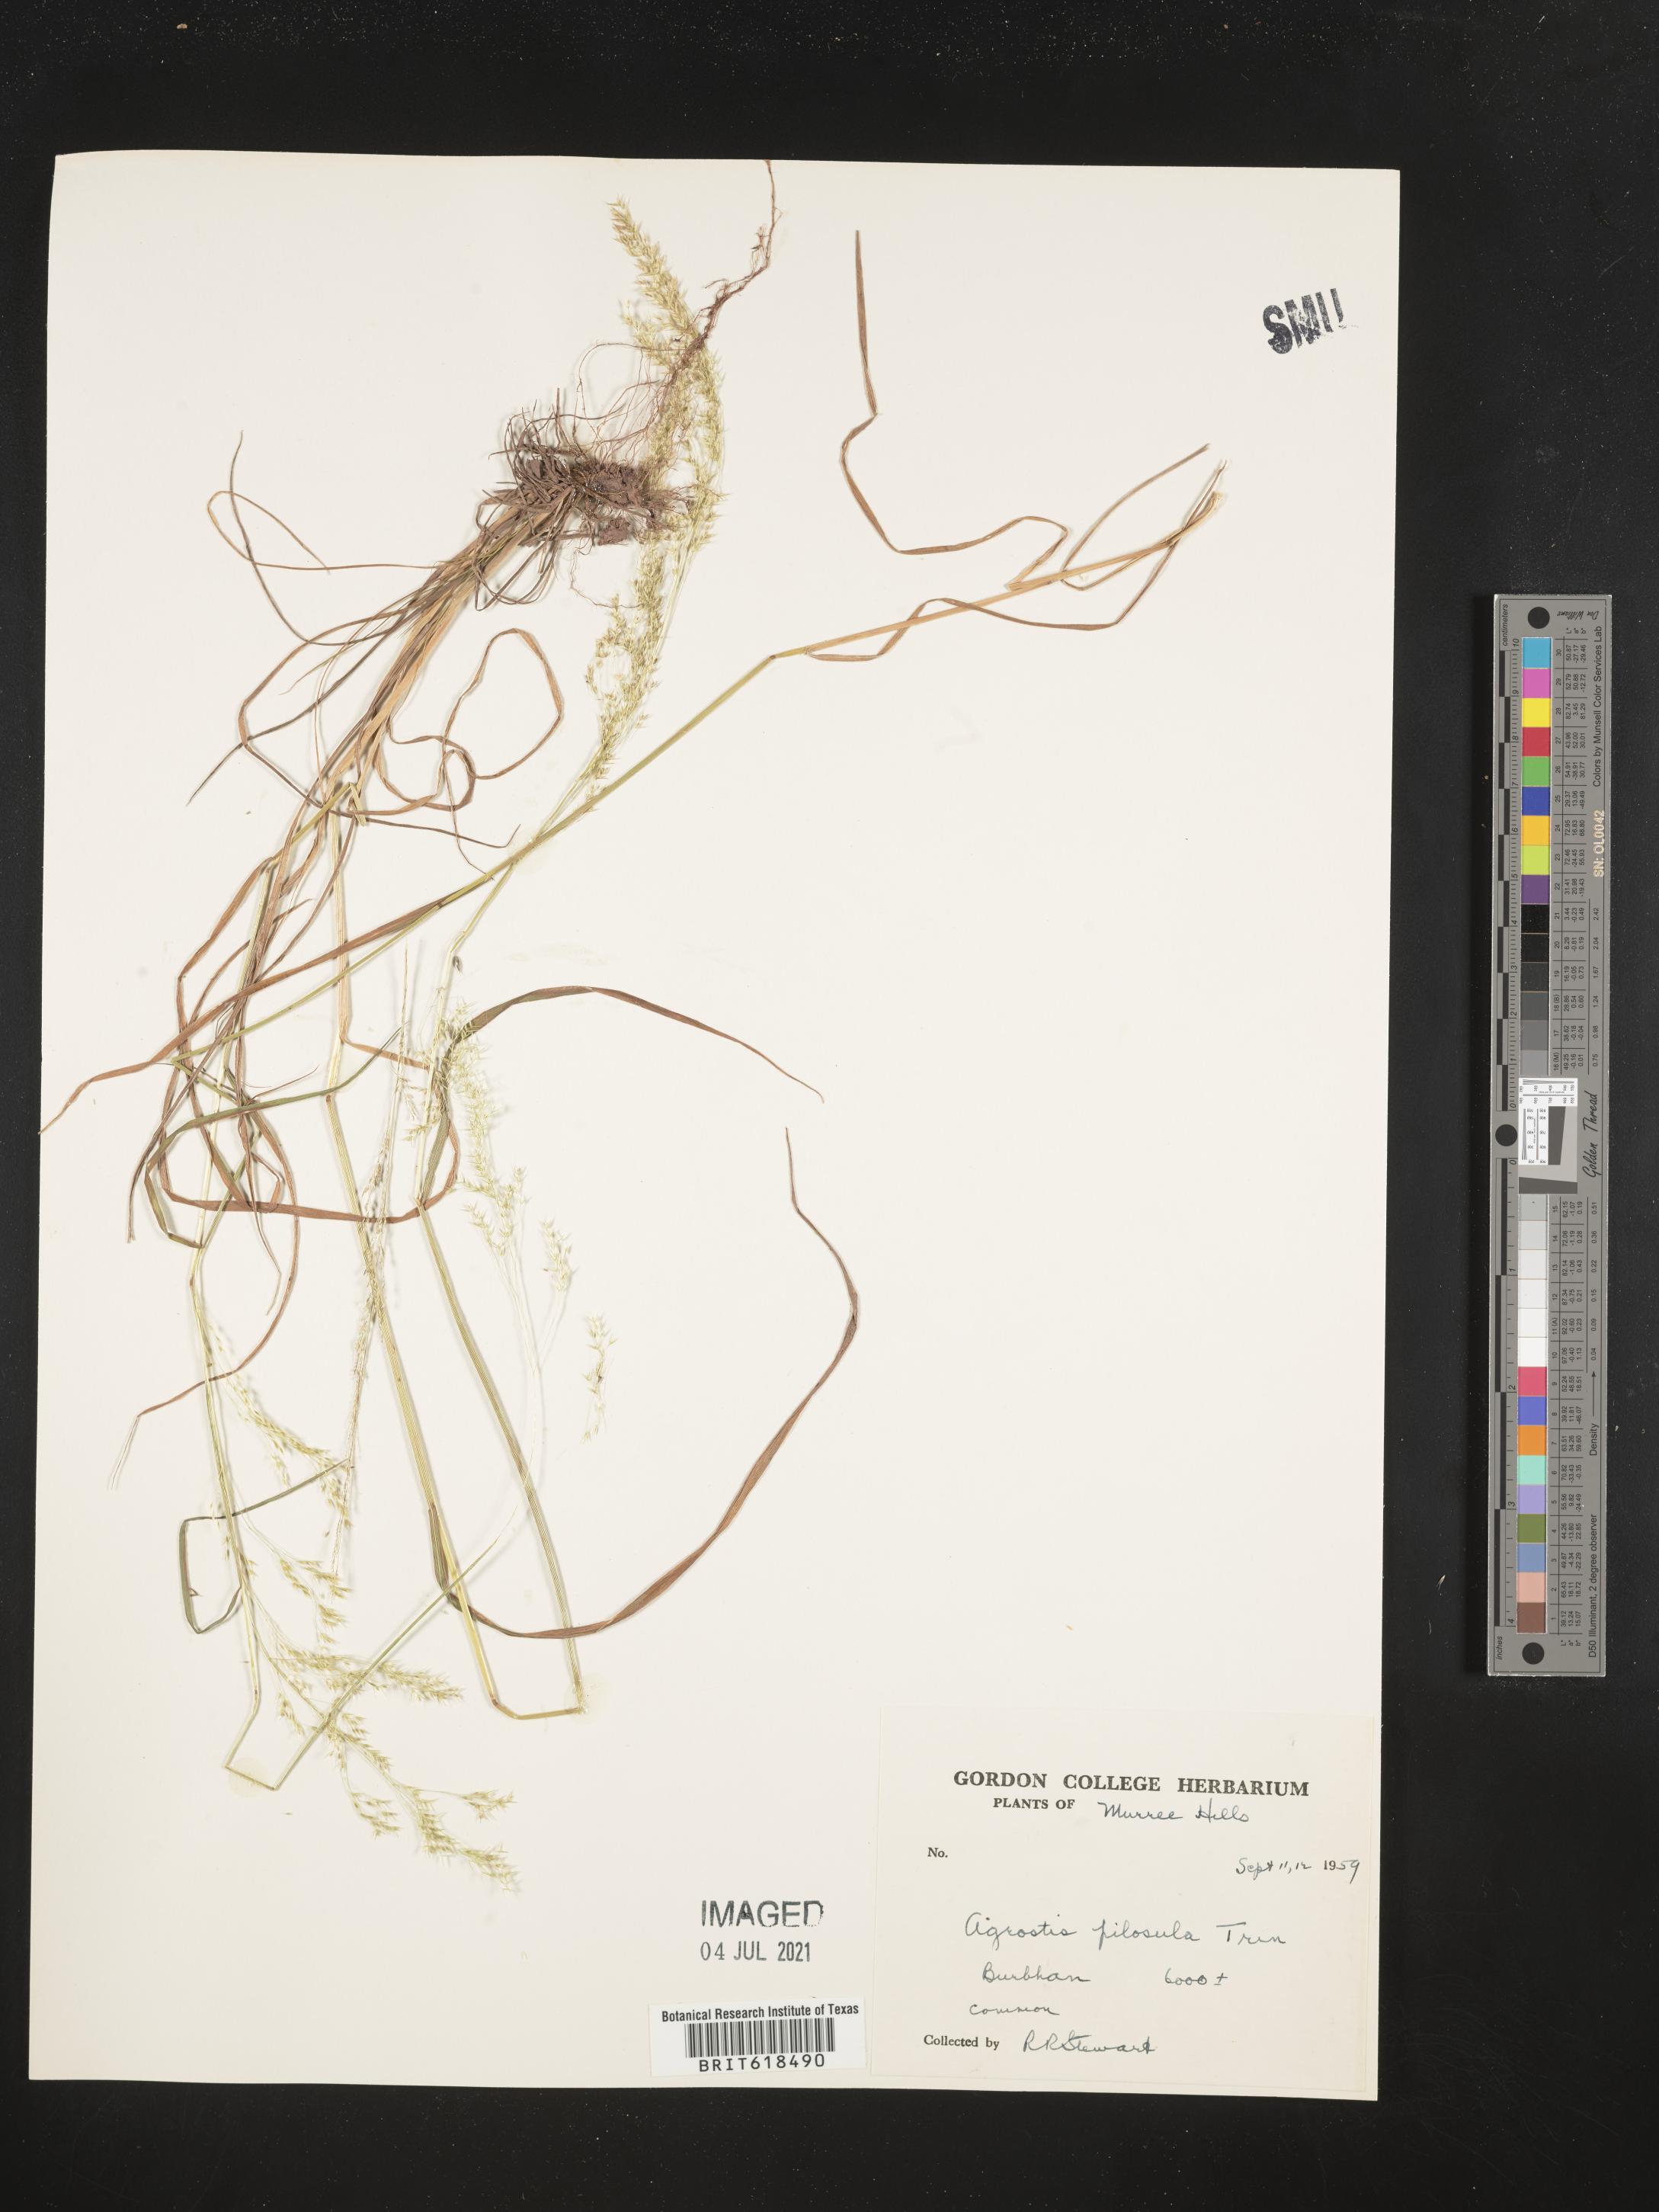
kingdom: Plantae
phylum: Tracheophyta
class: Liliopsida
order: Poales
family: Poaceae
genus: Agrostis
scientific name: Agrostis pilosula
